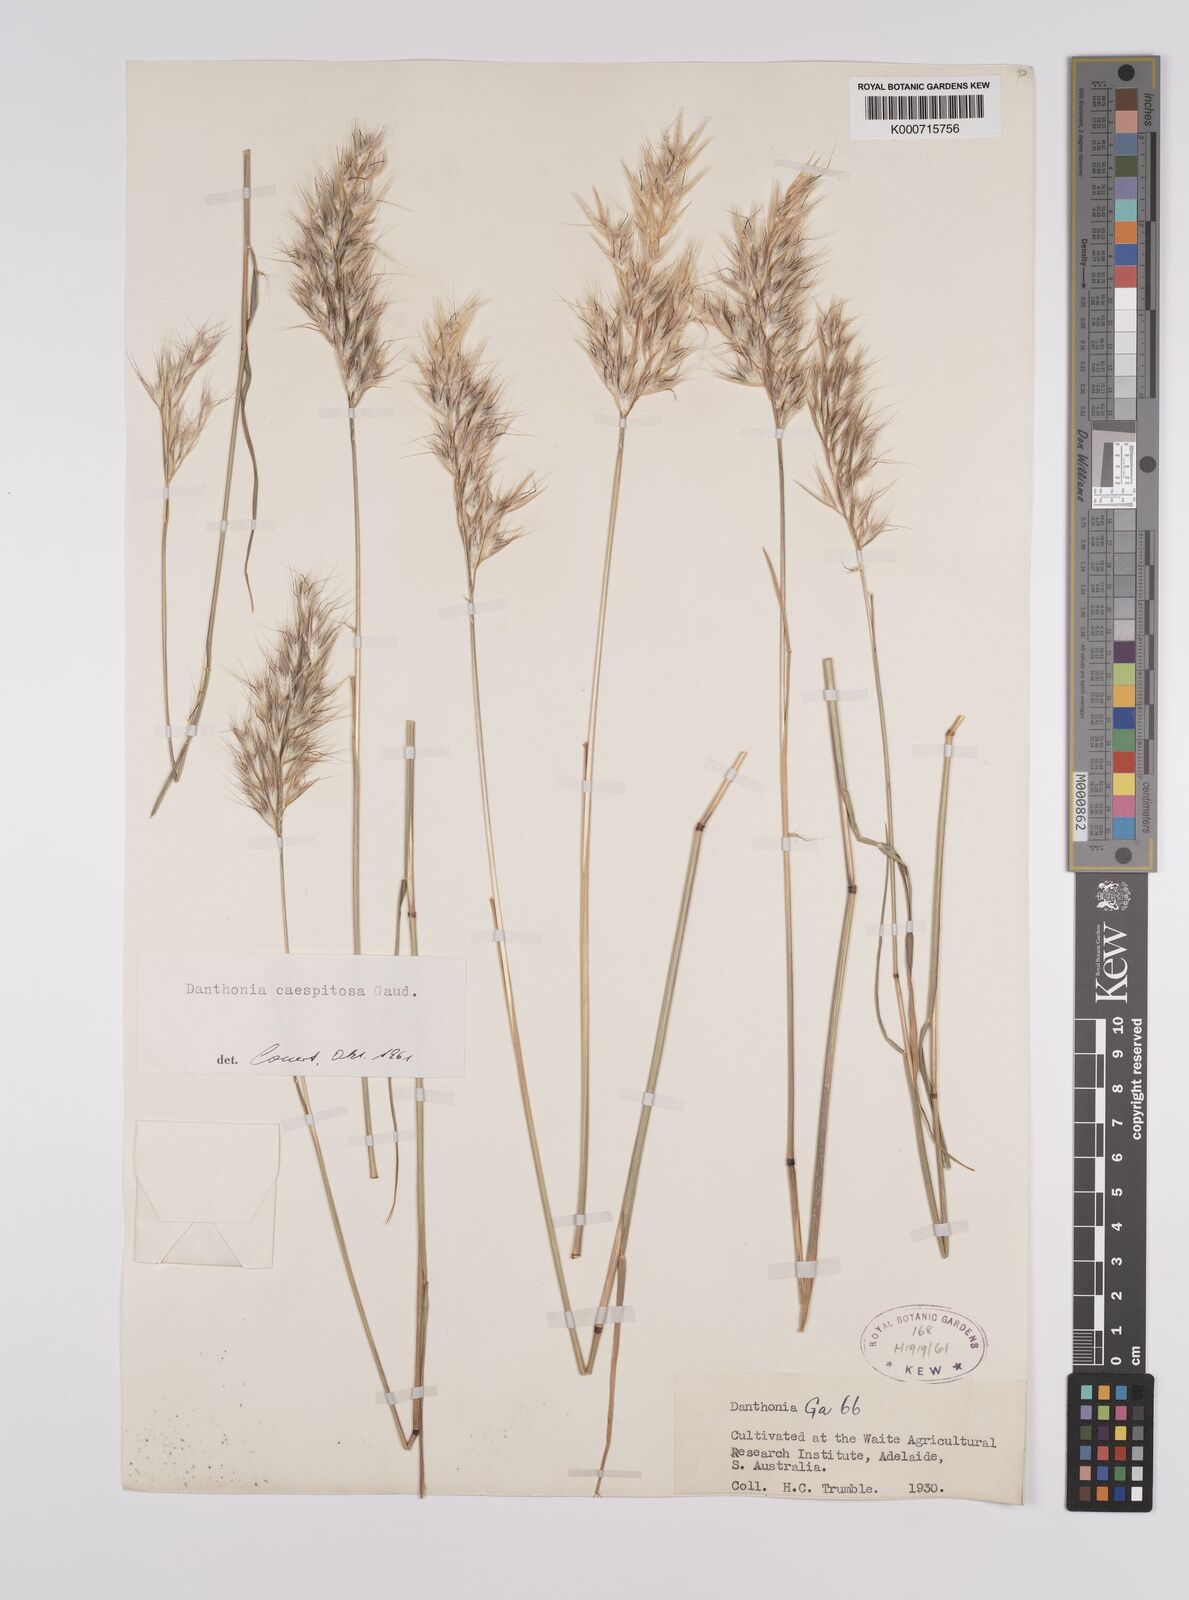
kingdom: Plantae
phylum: Tracheophyta
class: Liliopsida
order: Poales
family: Poaceae
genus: Rytidosperma
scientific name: Rytidosperma caespitosum
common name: Tufted wallaby grass
